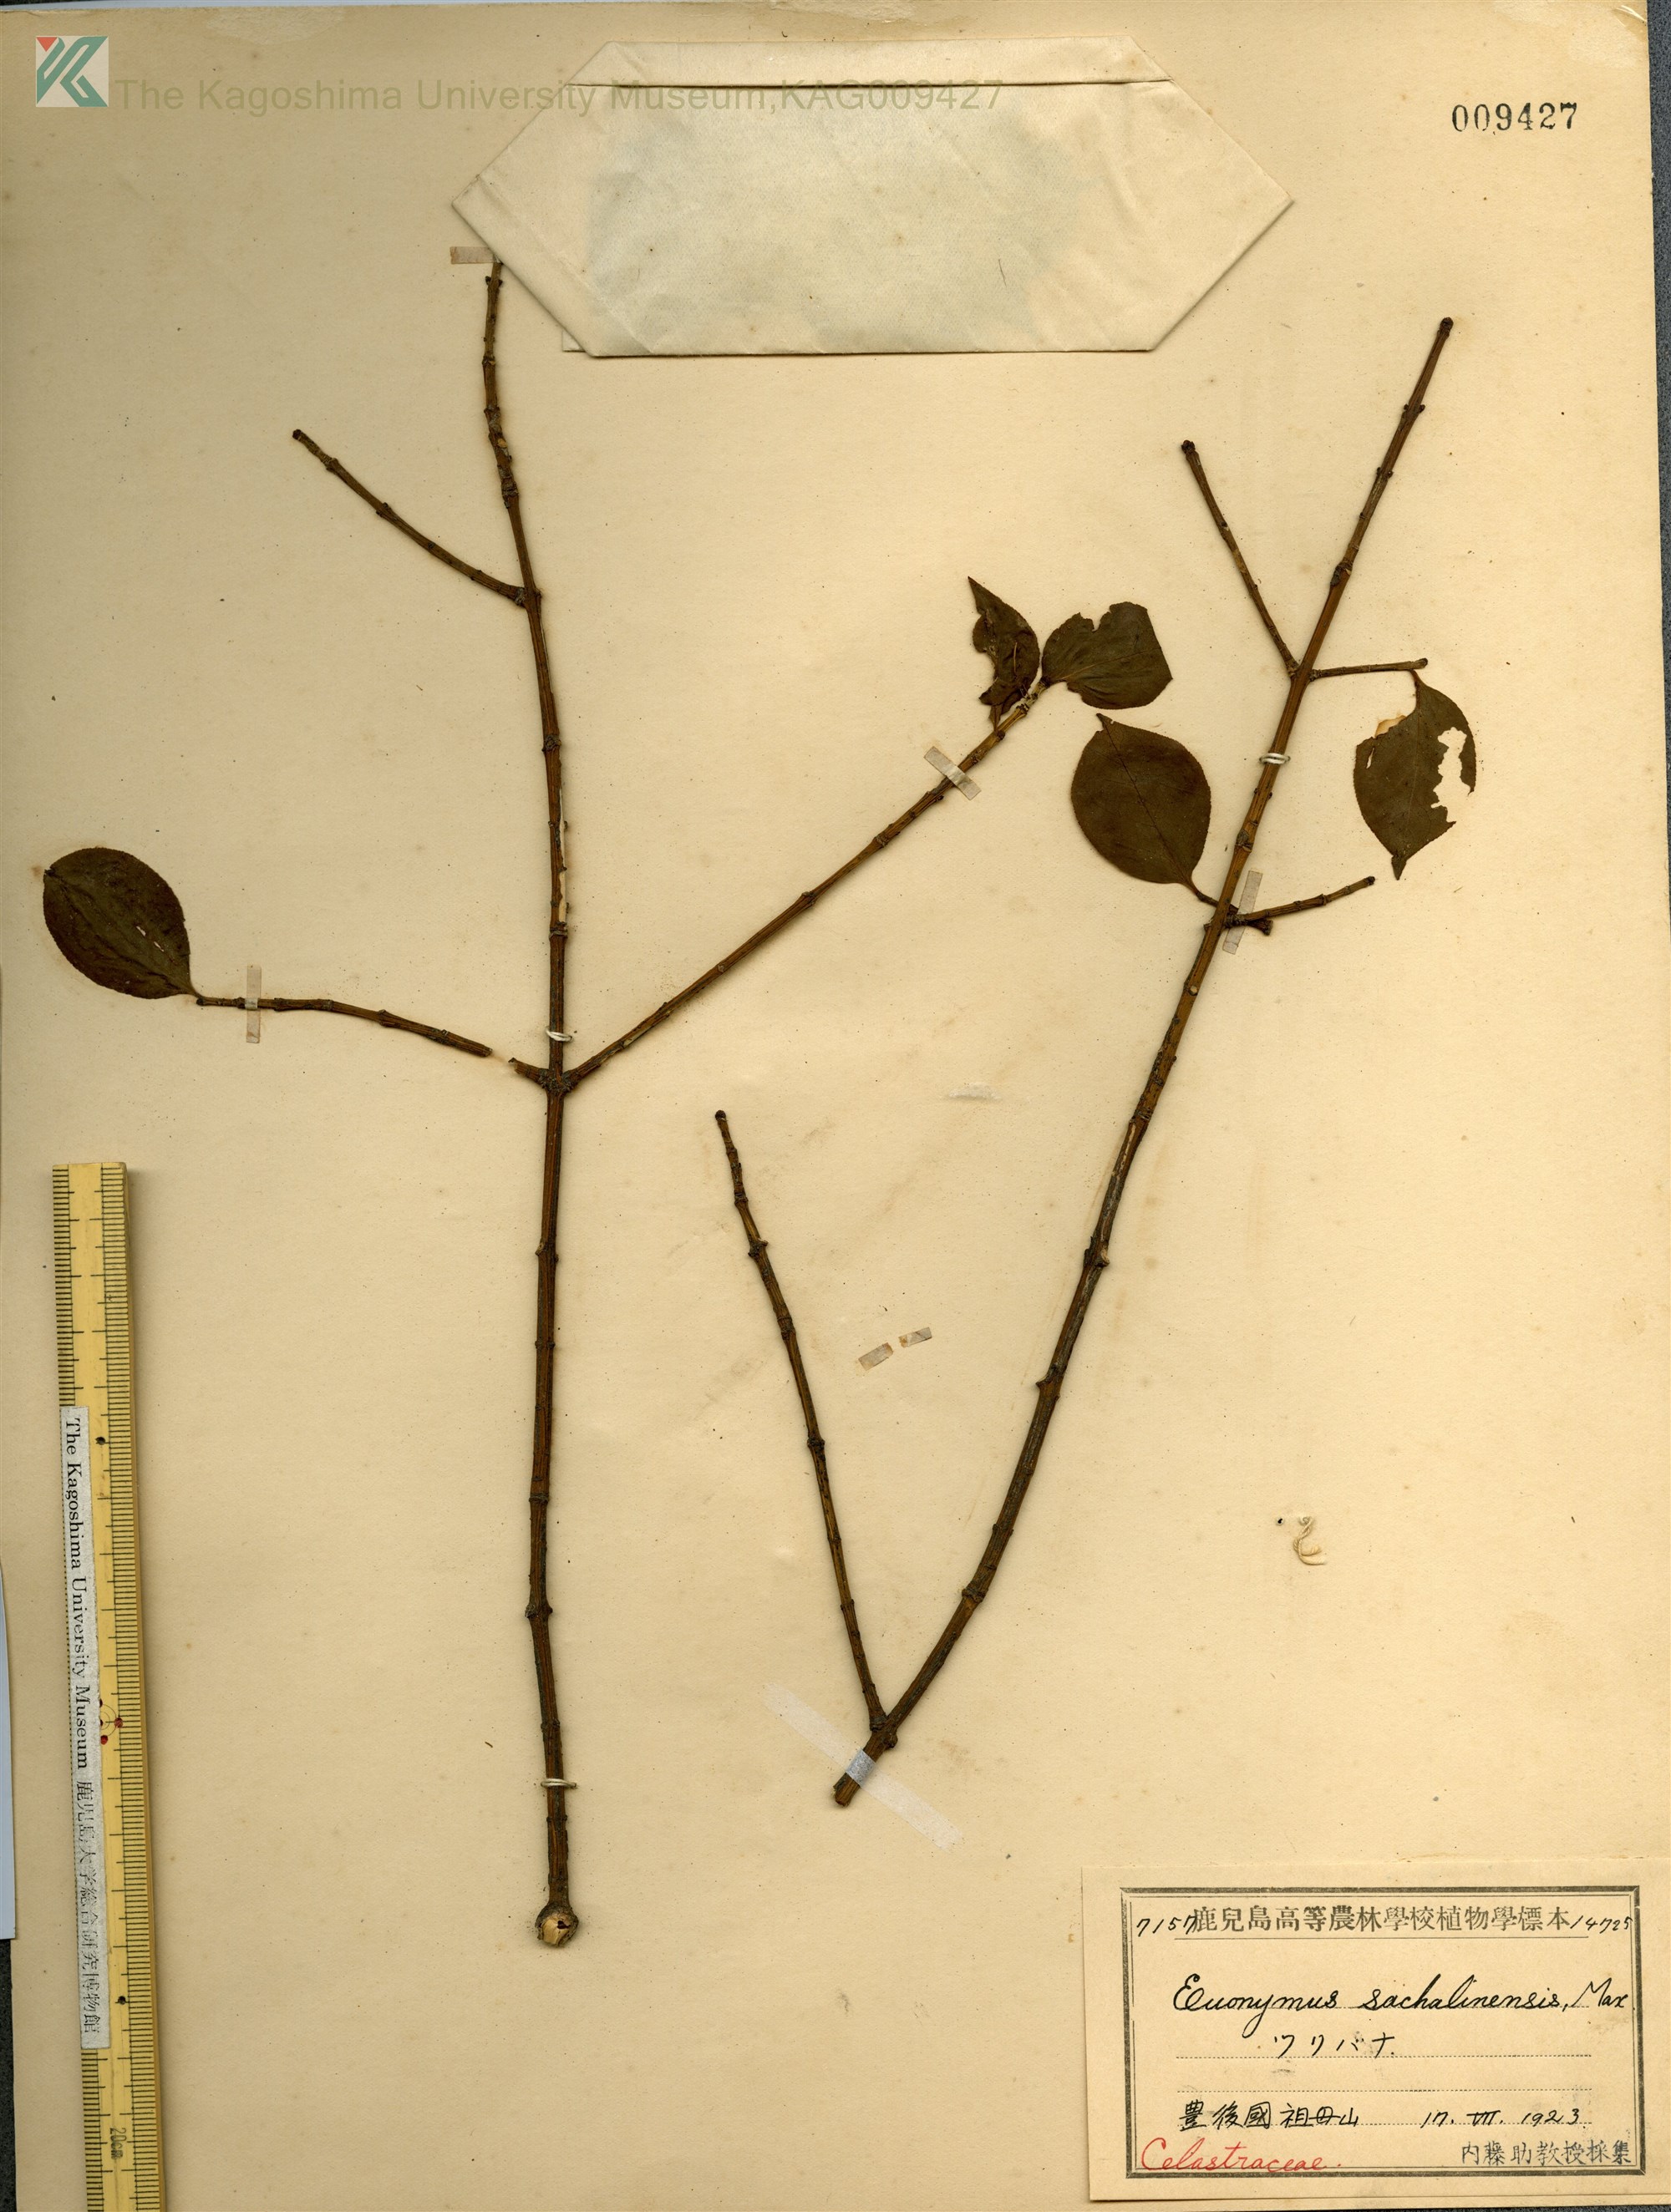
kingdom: Plantae
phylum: Tracheophyta
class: Magnoliopsida
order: Celastrales
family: Celastraceae
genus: Euonymus
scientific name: Euonymus alatus
